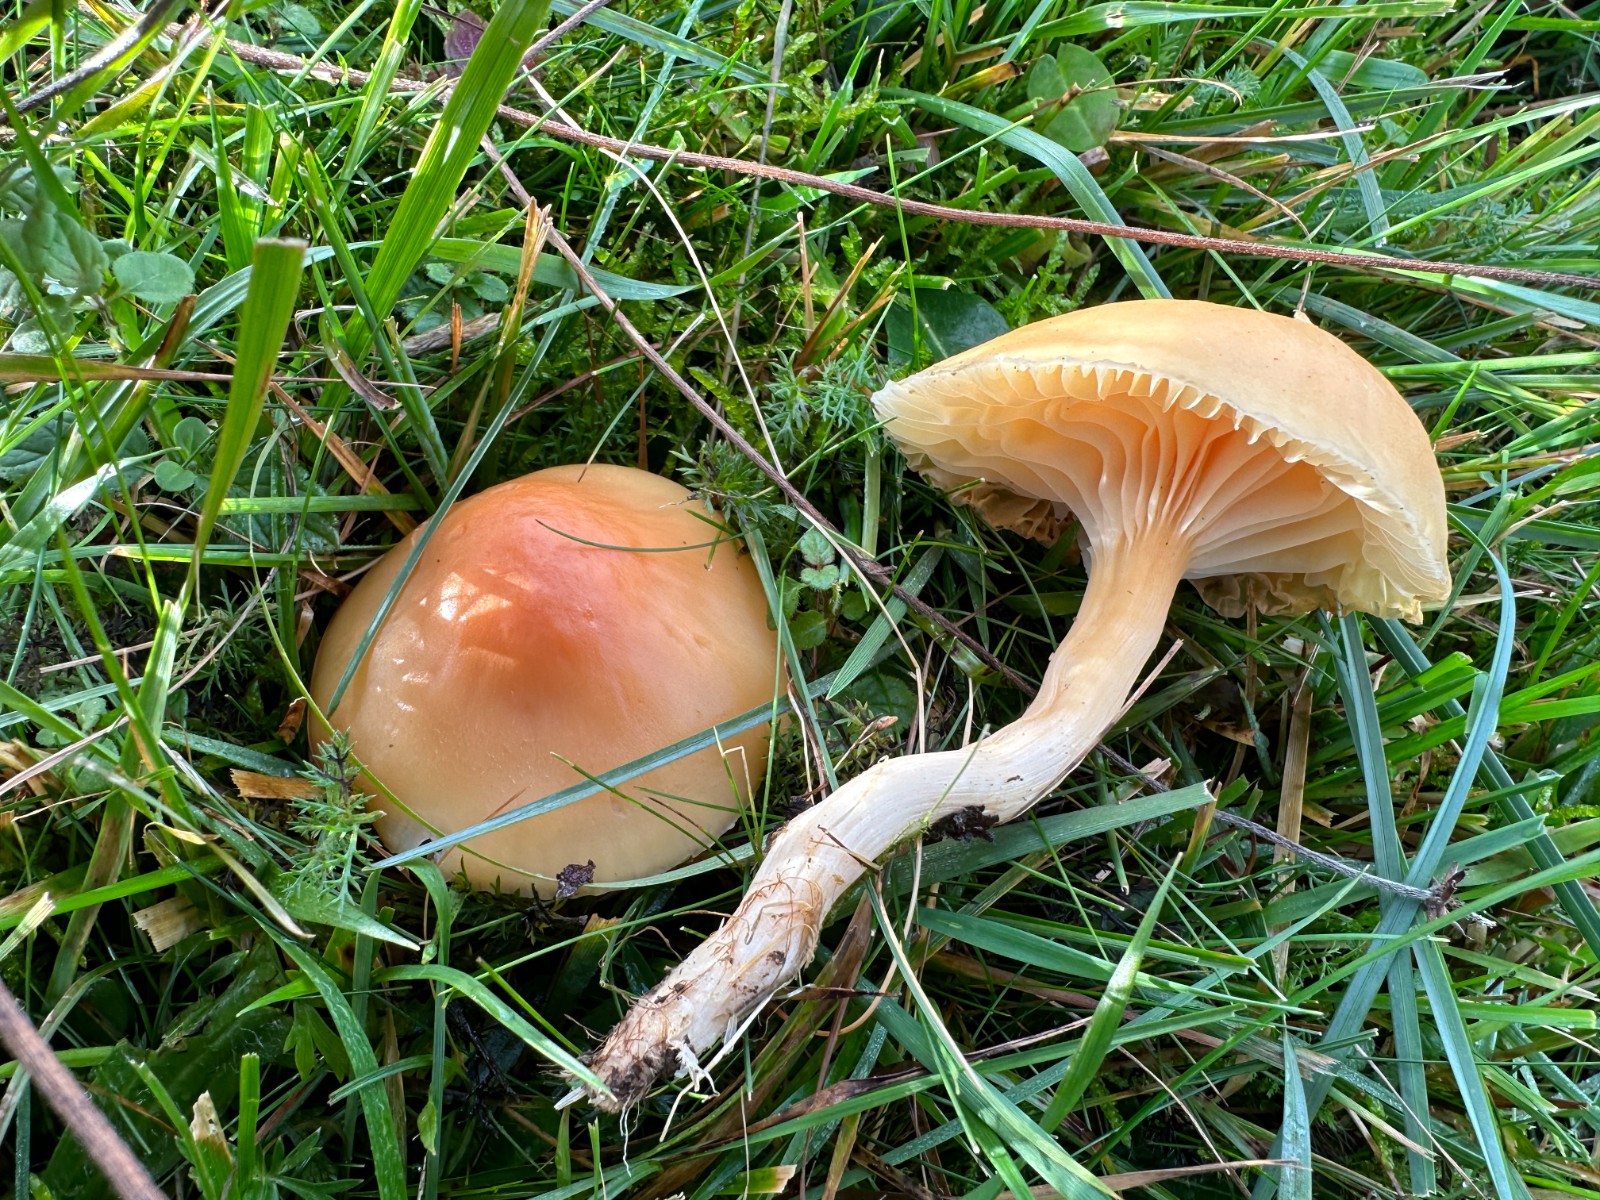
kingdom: Fungi
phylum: Basidiomycota
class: Agaricomycetes
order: Agaricales
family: Hygrophoraceae
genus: Cuphophyllus
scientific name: Cuphophyllus pratensis
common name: eng-vokshat
